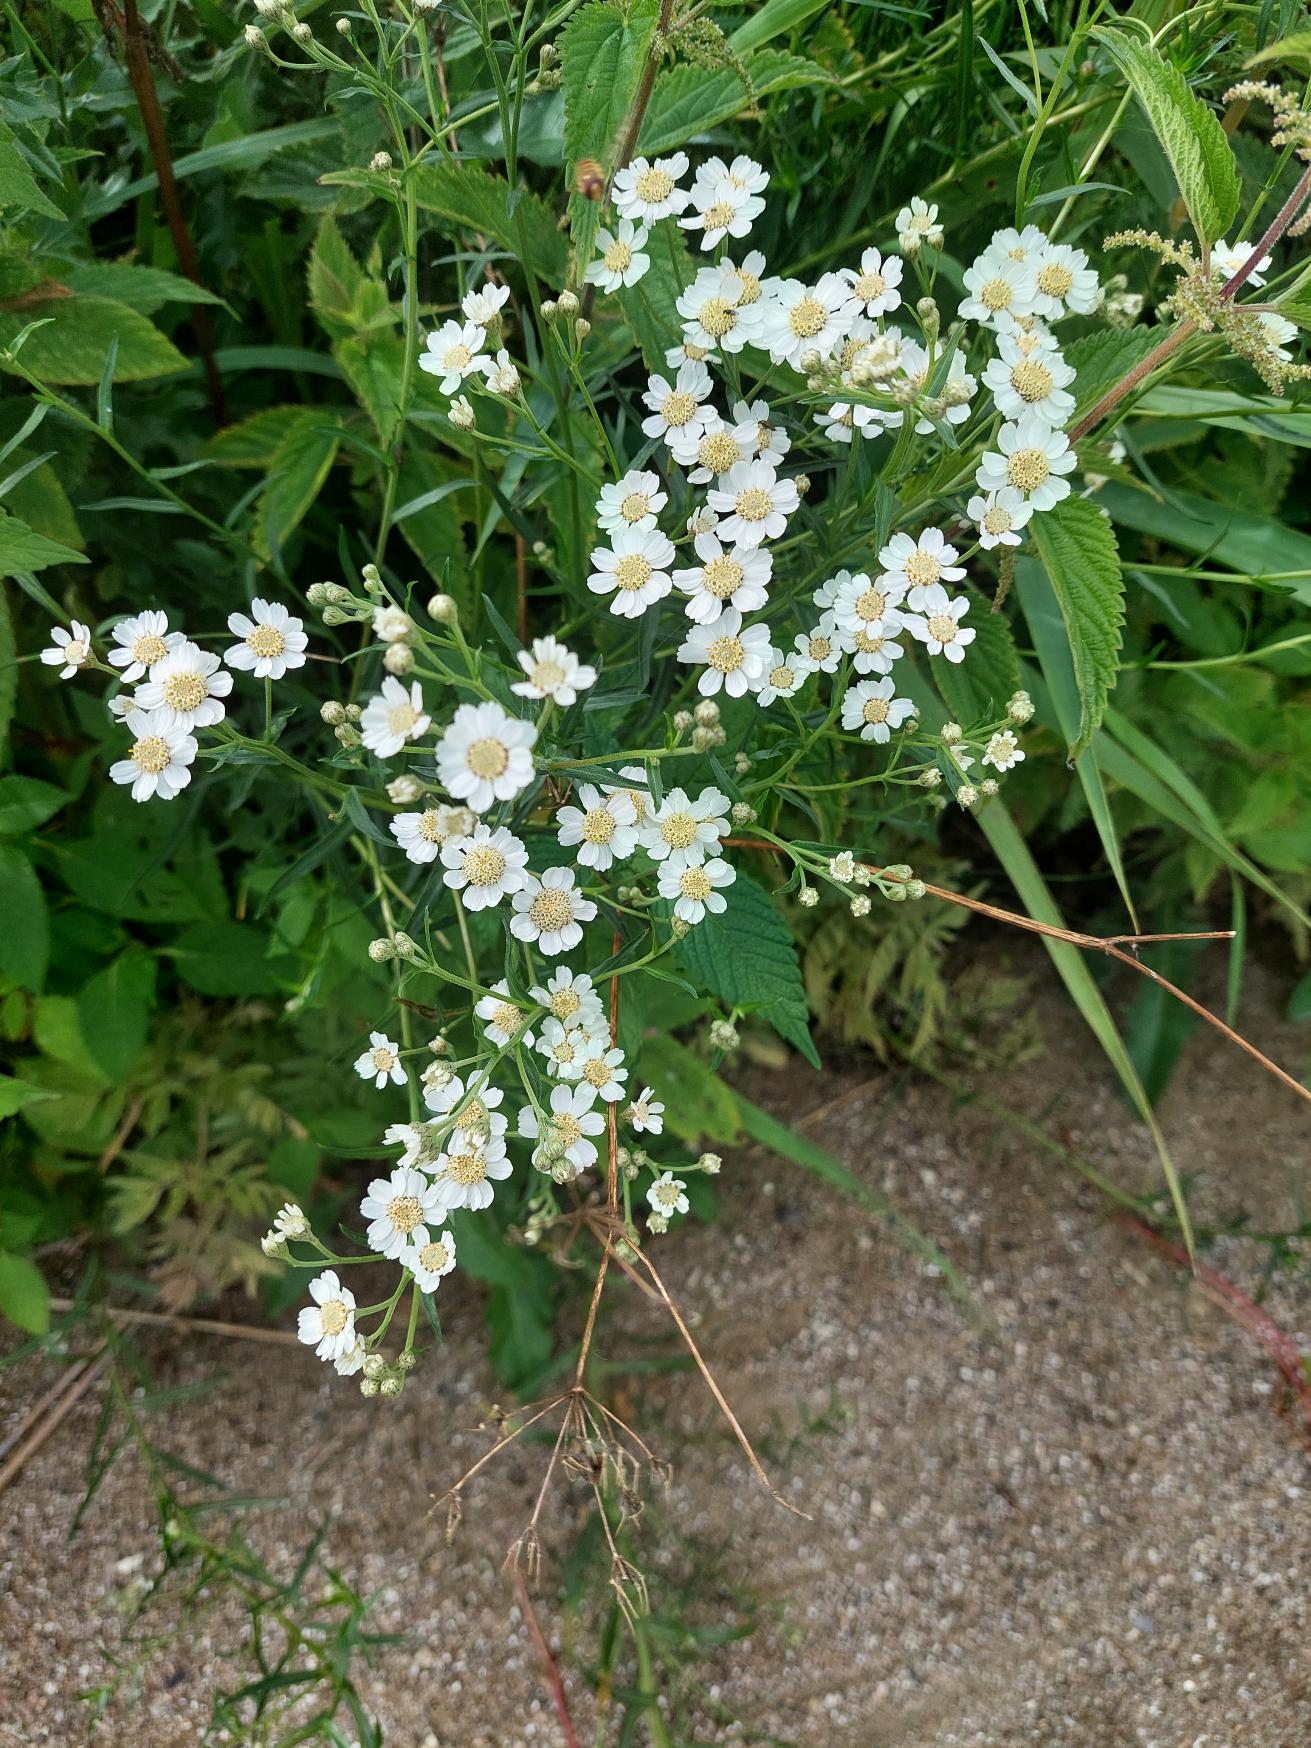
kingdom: Plantae
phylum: Tracheophyta
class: Magnoliopsida
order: Asterales
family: Asteraceae
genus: Achillea
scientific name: Achillea ptarmica
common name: Nyse-røllike
